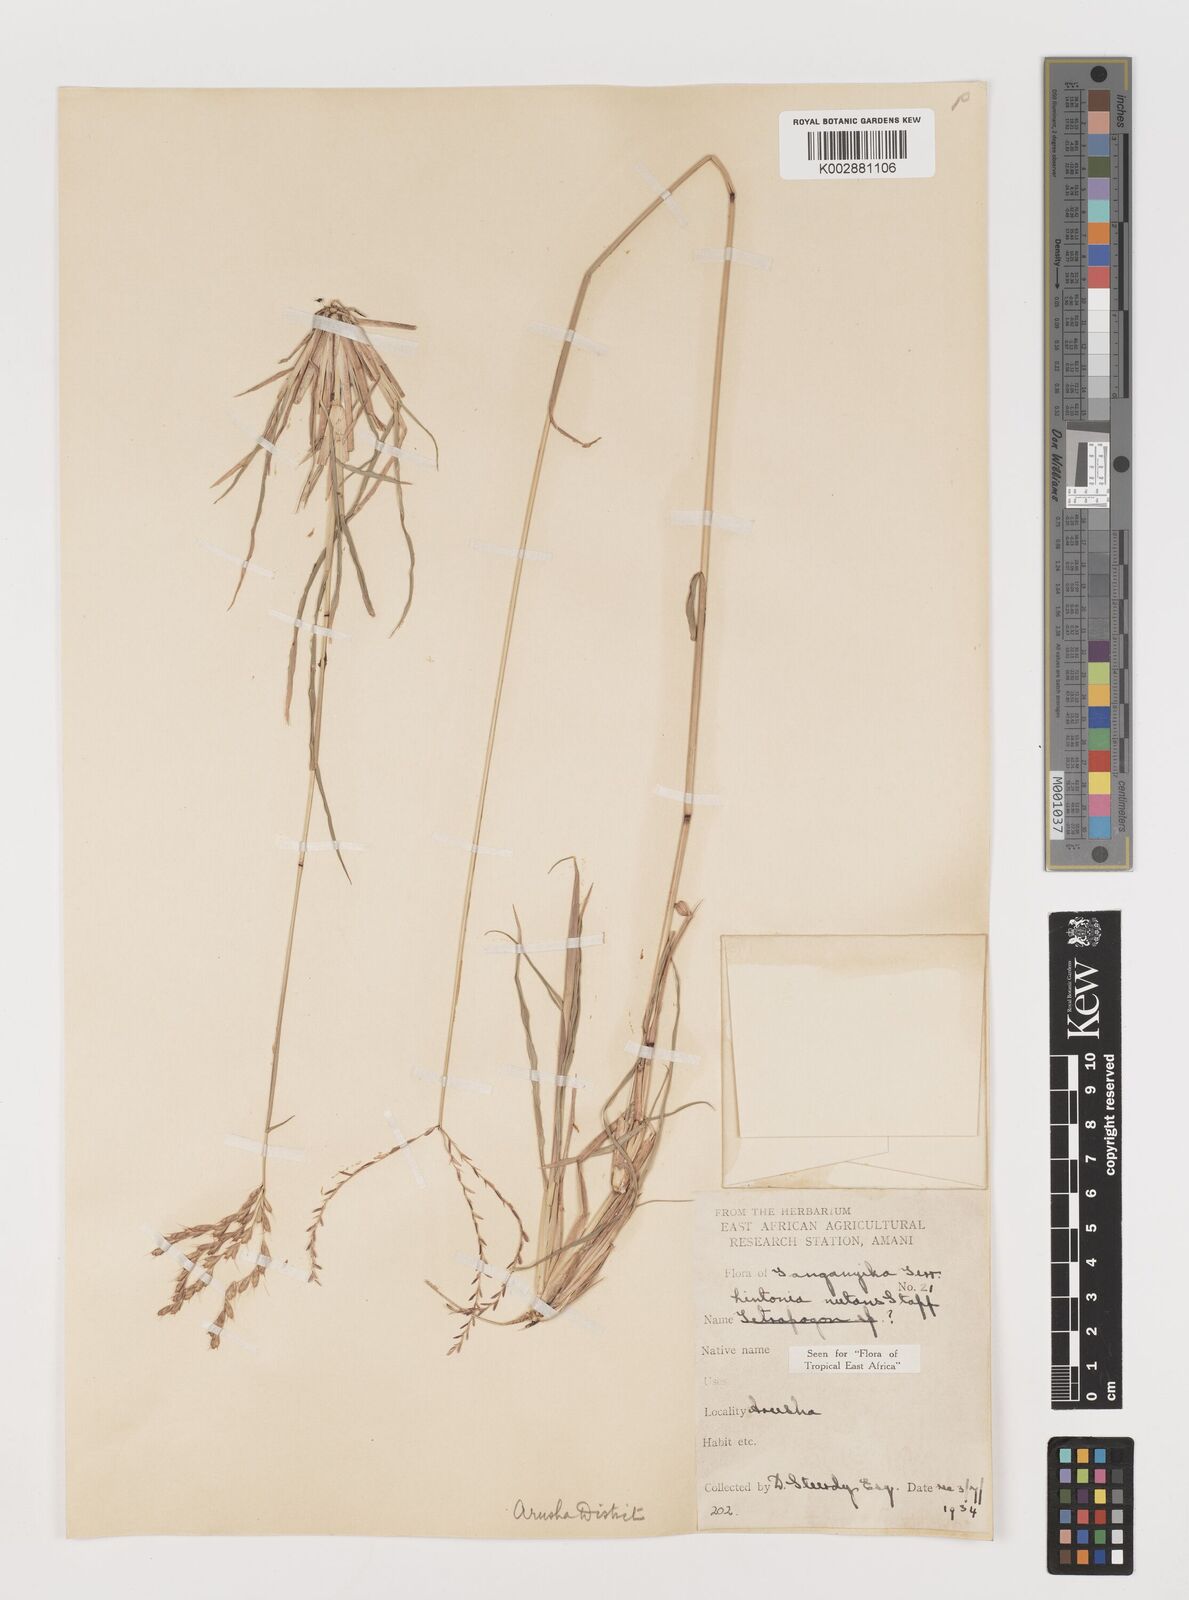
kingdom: Plantae
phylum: Tracheophyta
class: Liliopsida
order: Poales
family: Poaceae
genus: Chloris
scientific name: Chloris nutans
